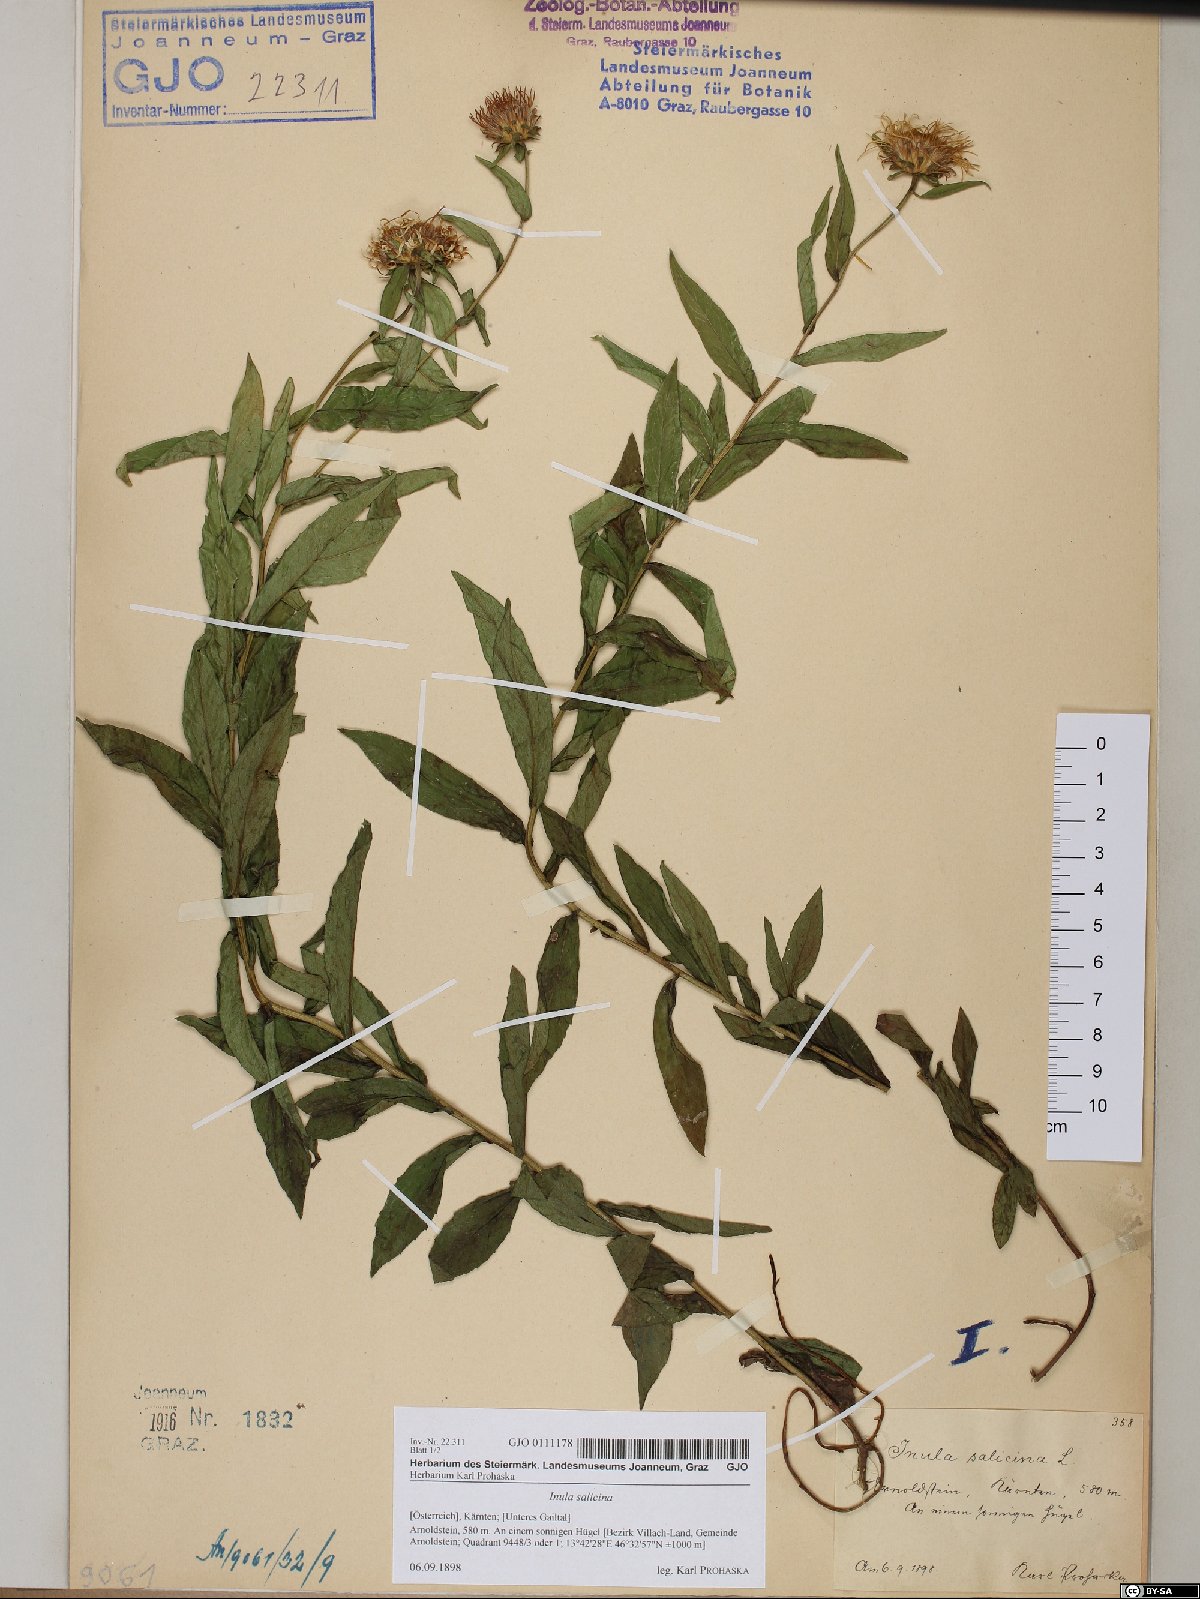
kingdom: Plantae
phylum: Tracheophyta
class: Magnoliopsida
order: Asterales
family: Asteraceae
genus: Pentanema
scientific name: Pentanema salicinum
